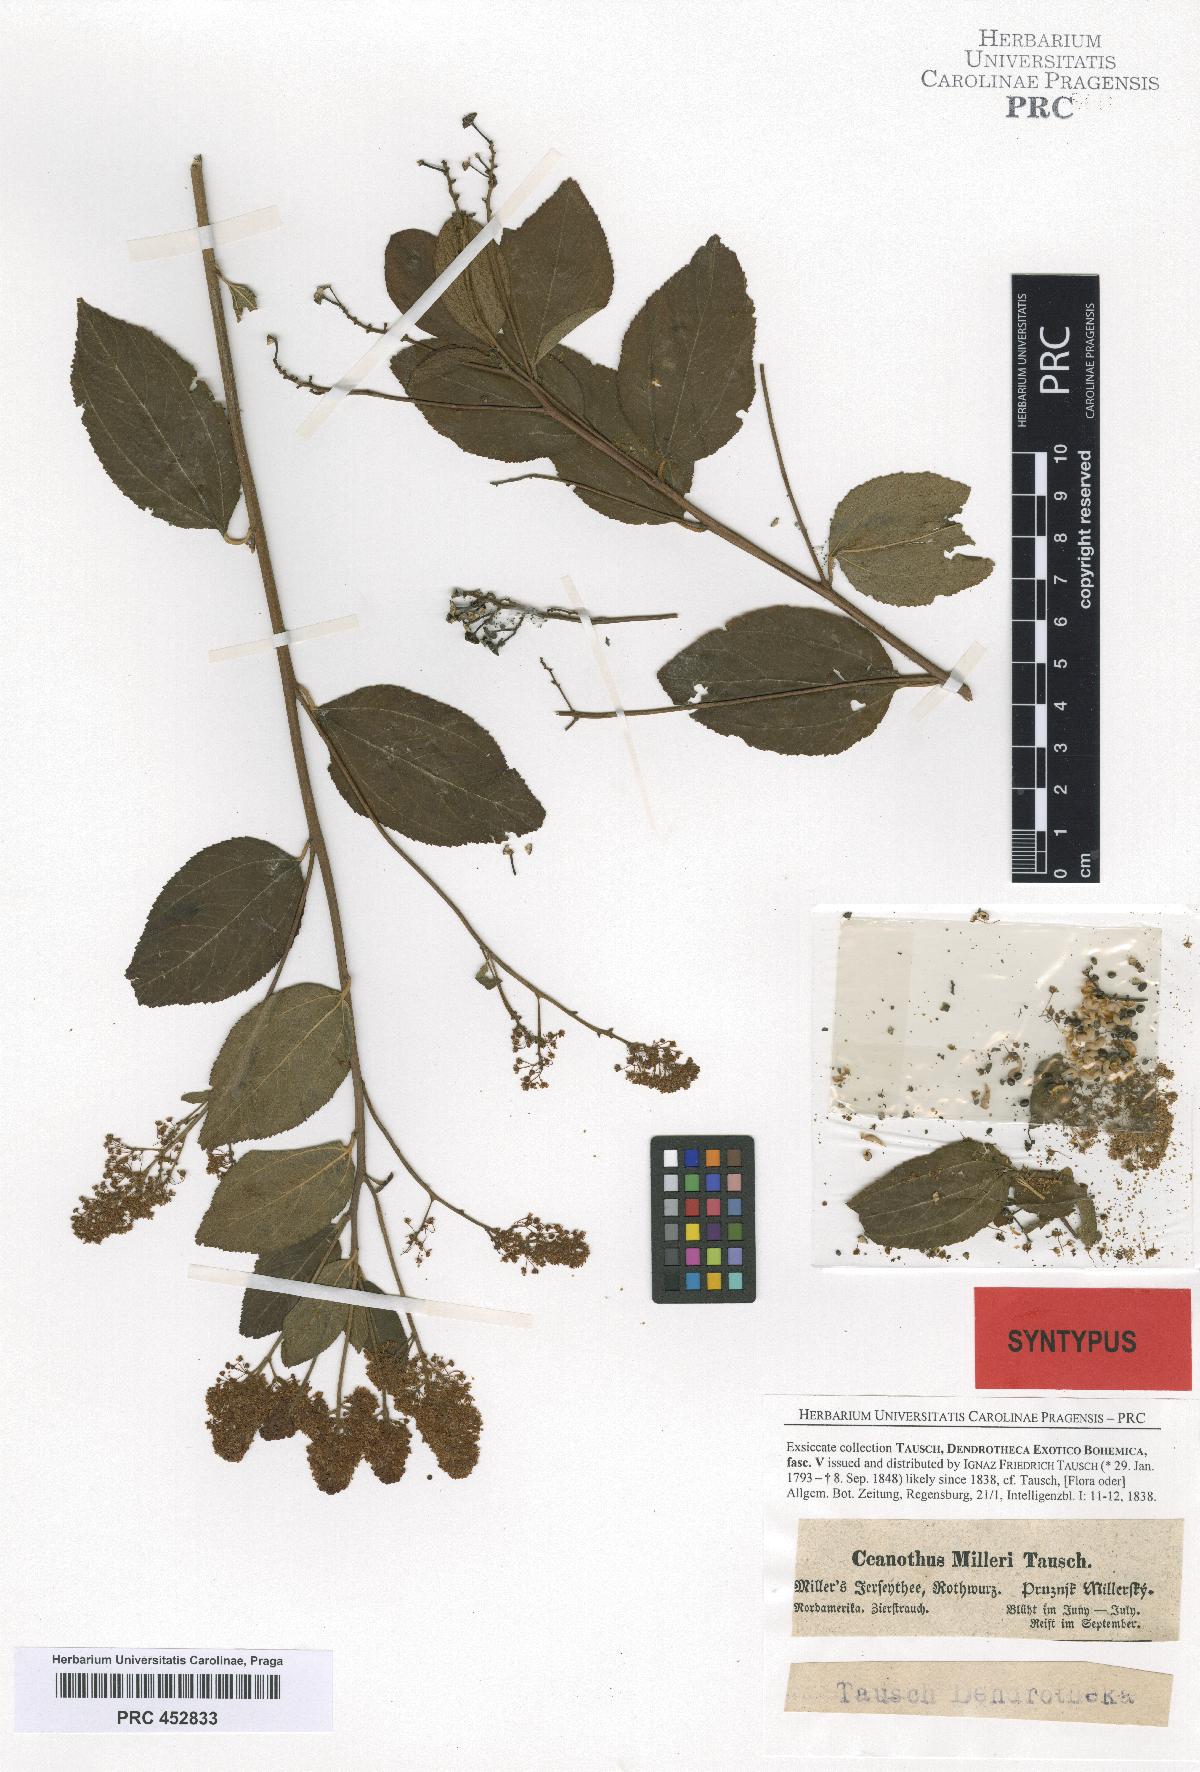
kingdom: Plantae
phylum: Tracheophyta
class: Magnoliopsida
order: Rosales
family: Rhamnaceae
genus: Ceanothus
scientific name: Ceanothus americanus
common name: Redroot
